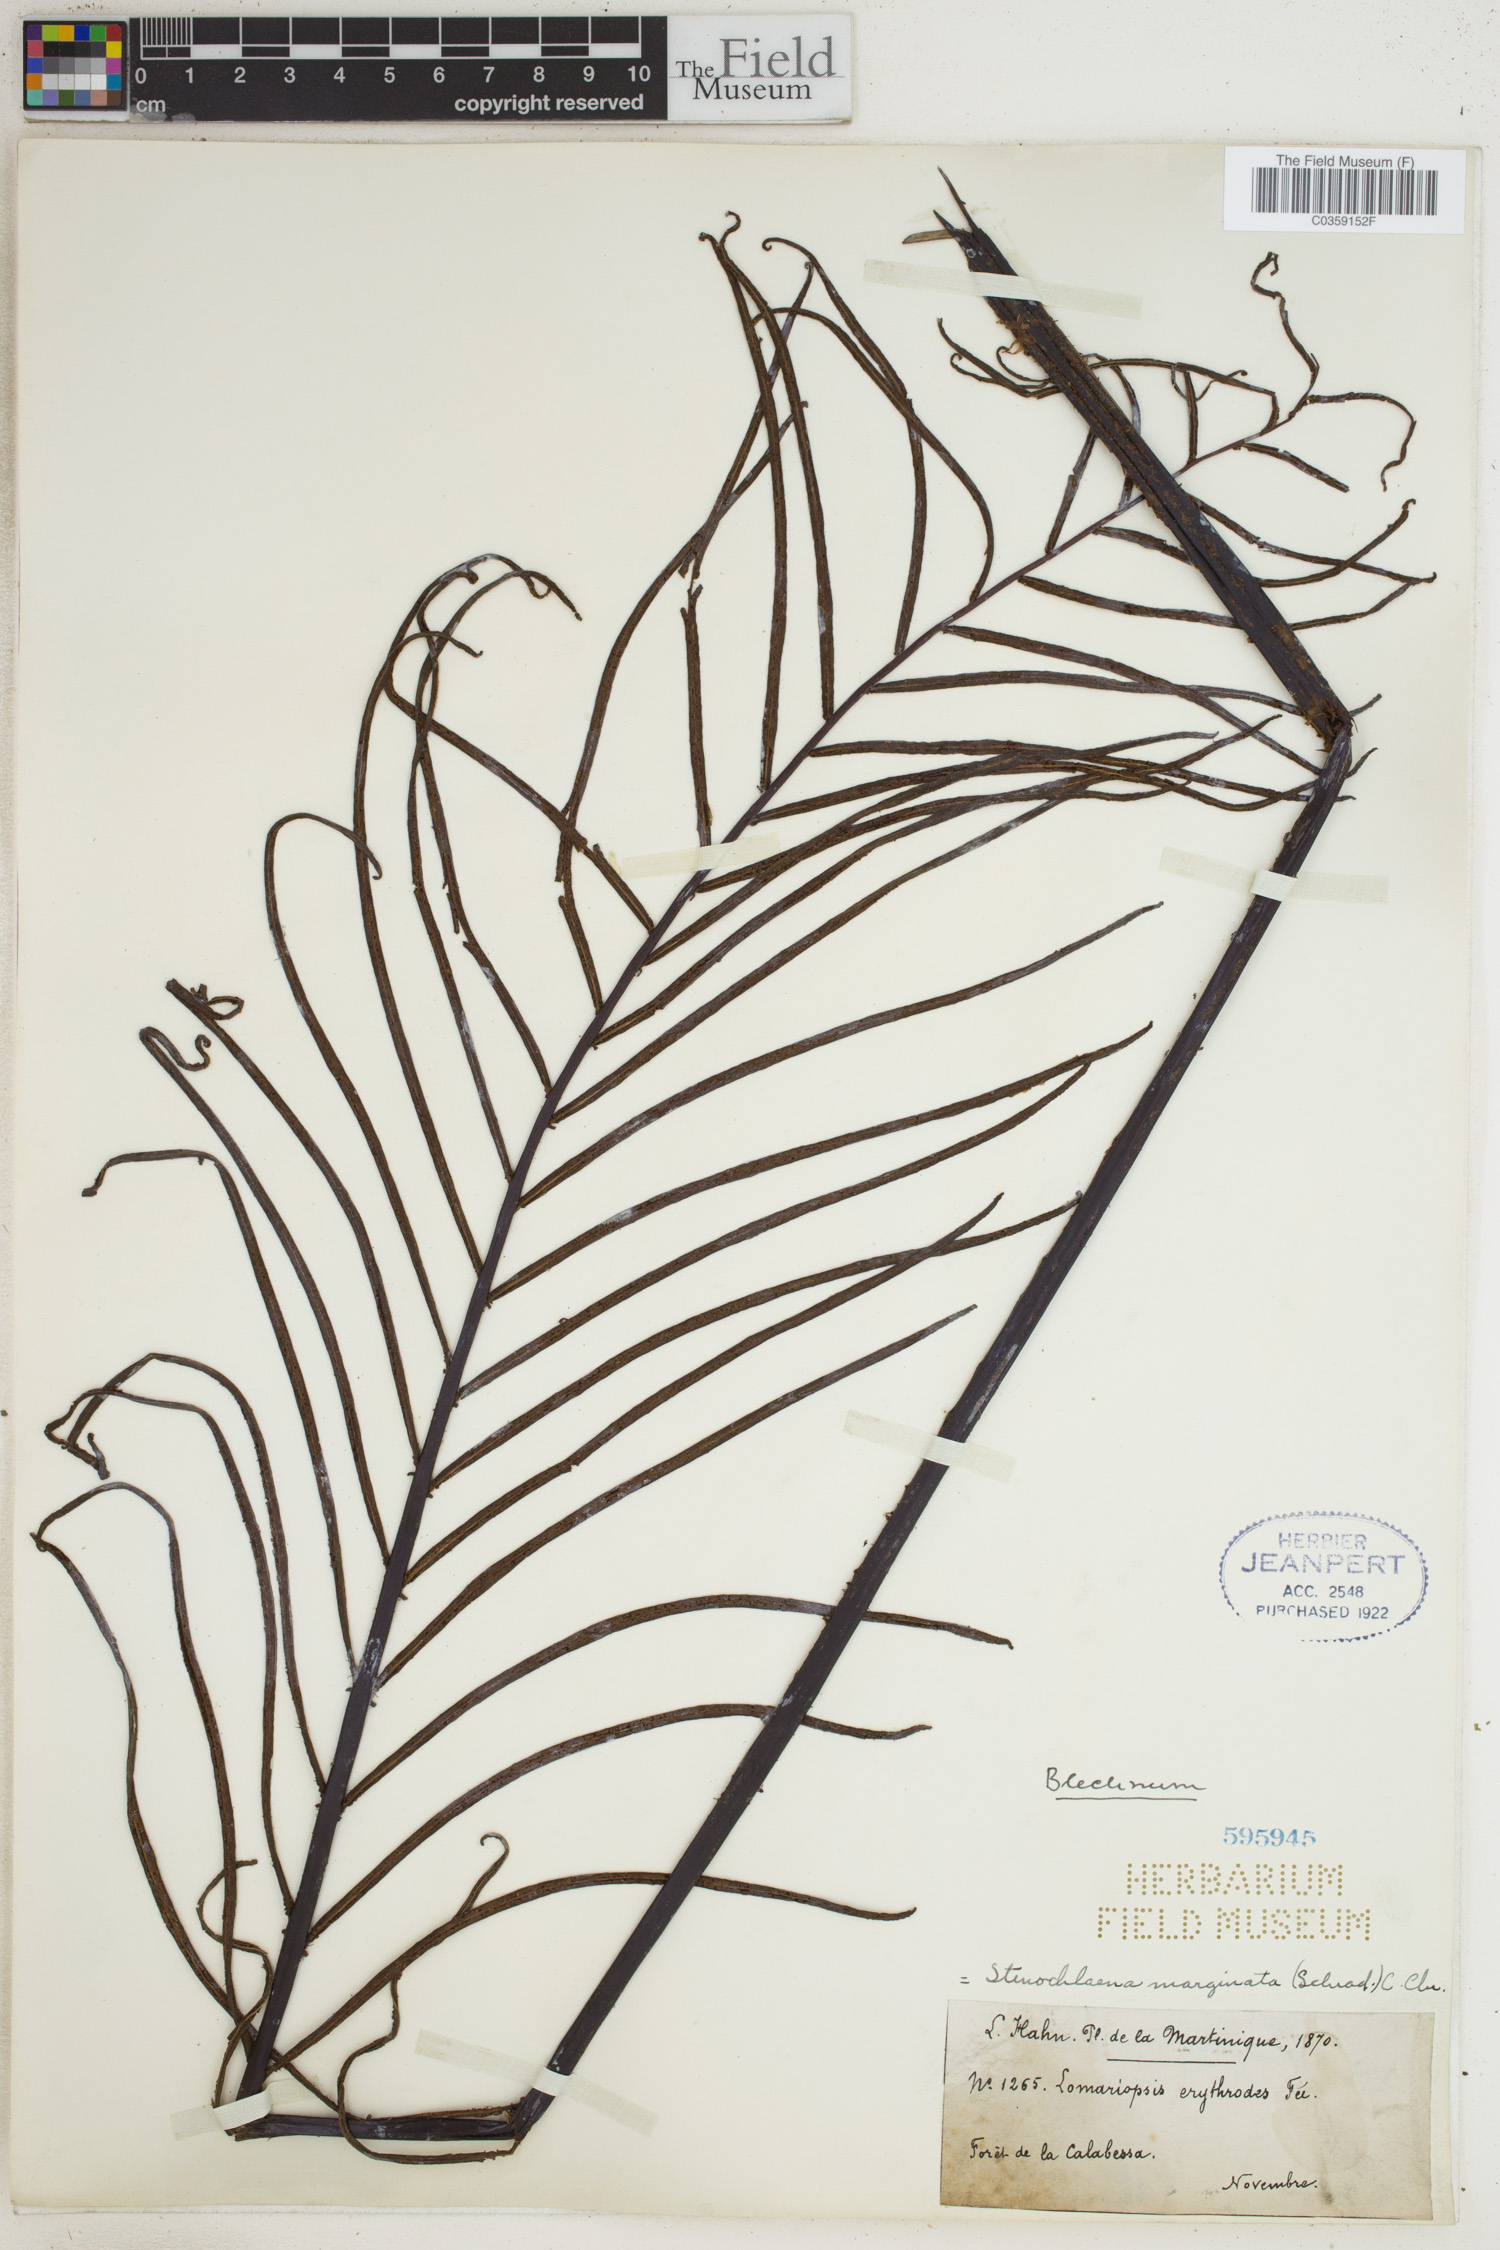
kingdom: Plantae
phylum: Tracheophyta
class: Polypodiopsida
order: Polypodiales
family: Lomariopsidaceae
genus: Lomariopsis
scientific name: Lomariopsis marginata
